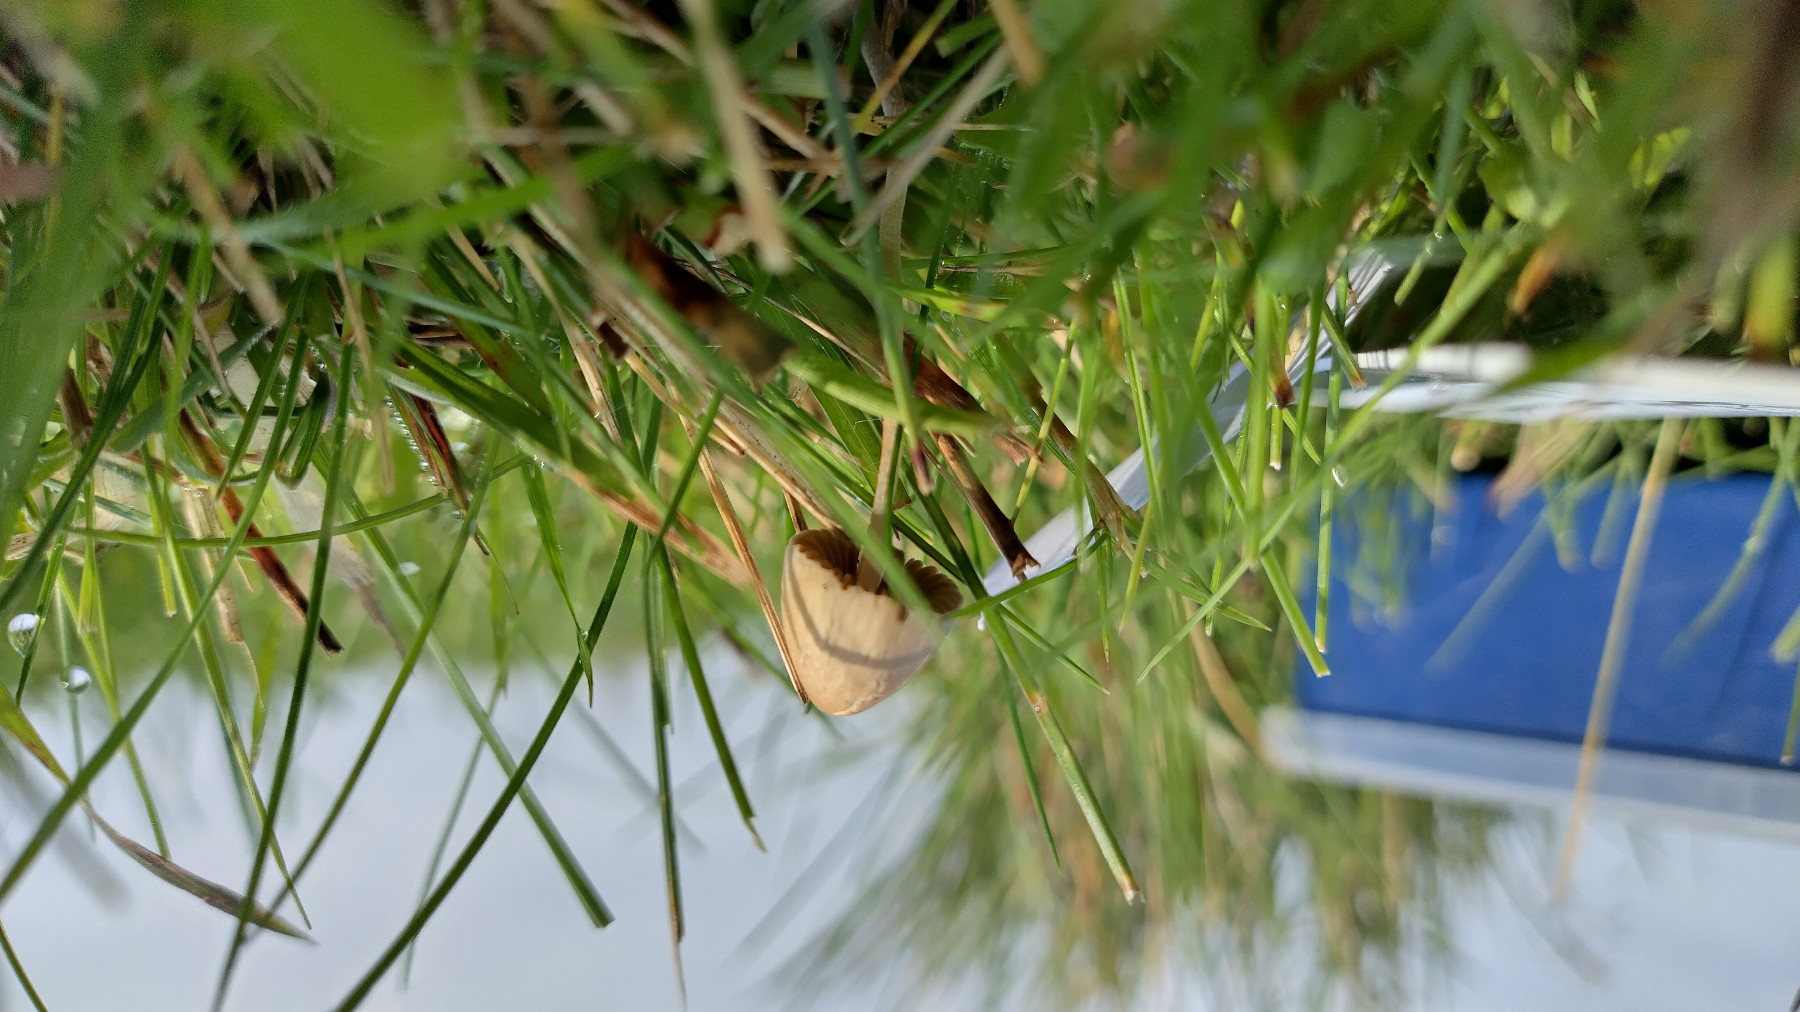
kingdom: Fungi
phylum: Basidiomycota
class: Agaricomycetes
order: Agaricales
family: Bolbitiaceae
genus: Conocybe
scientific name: Conocybe
